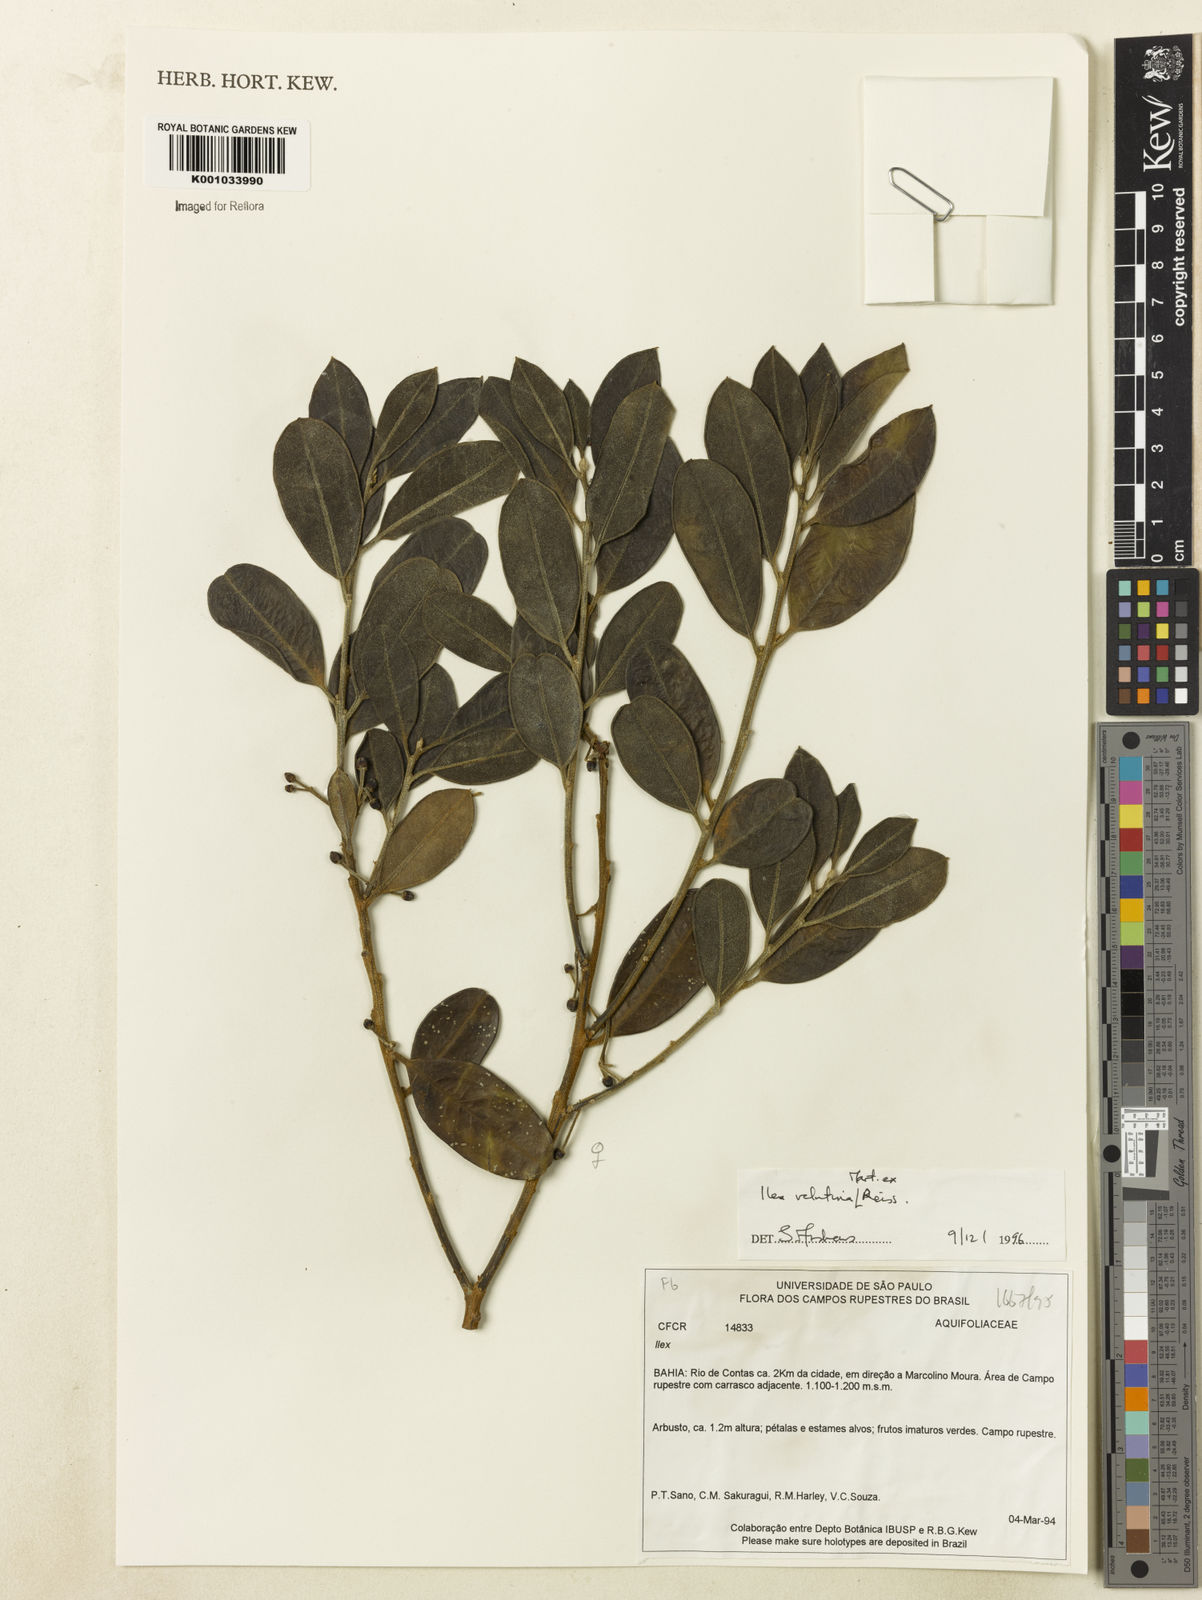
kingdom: Plantae
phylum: Tracheophyta
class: Magnoliopsida
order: Aquifoliales
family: Aquifoliaceae
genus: Ilex
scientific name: Ilex velutina
